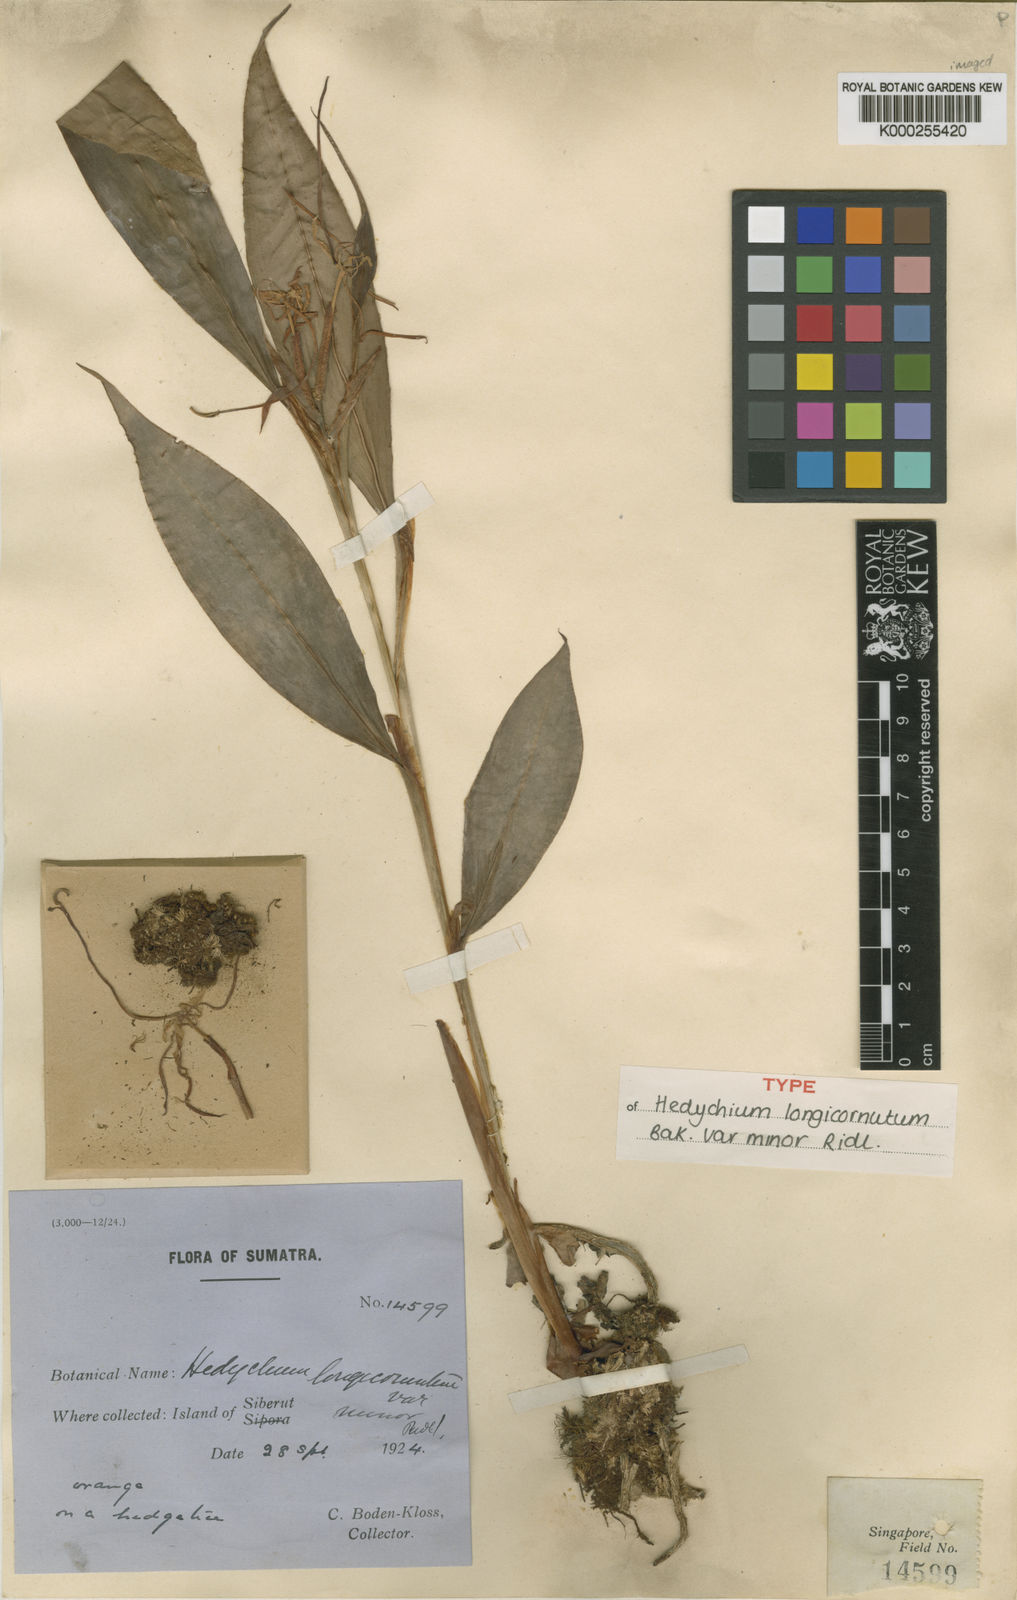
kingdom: Plantae
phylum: Tracheophyta
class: Liliopsida
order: Zingiberales
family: Zingiberaceae
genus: Hedychium
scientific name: Hedychium
